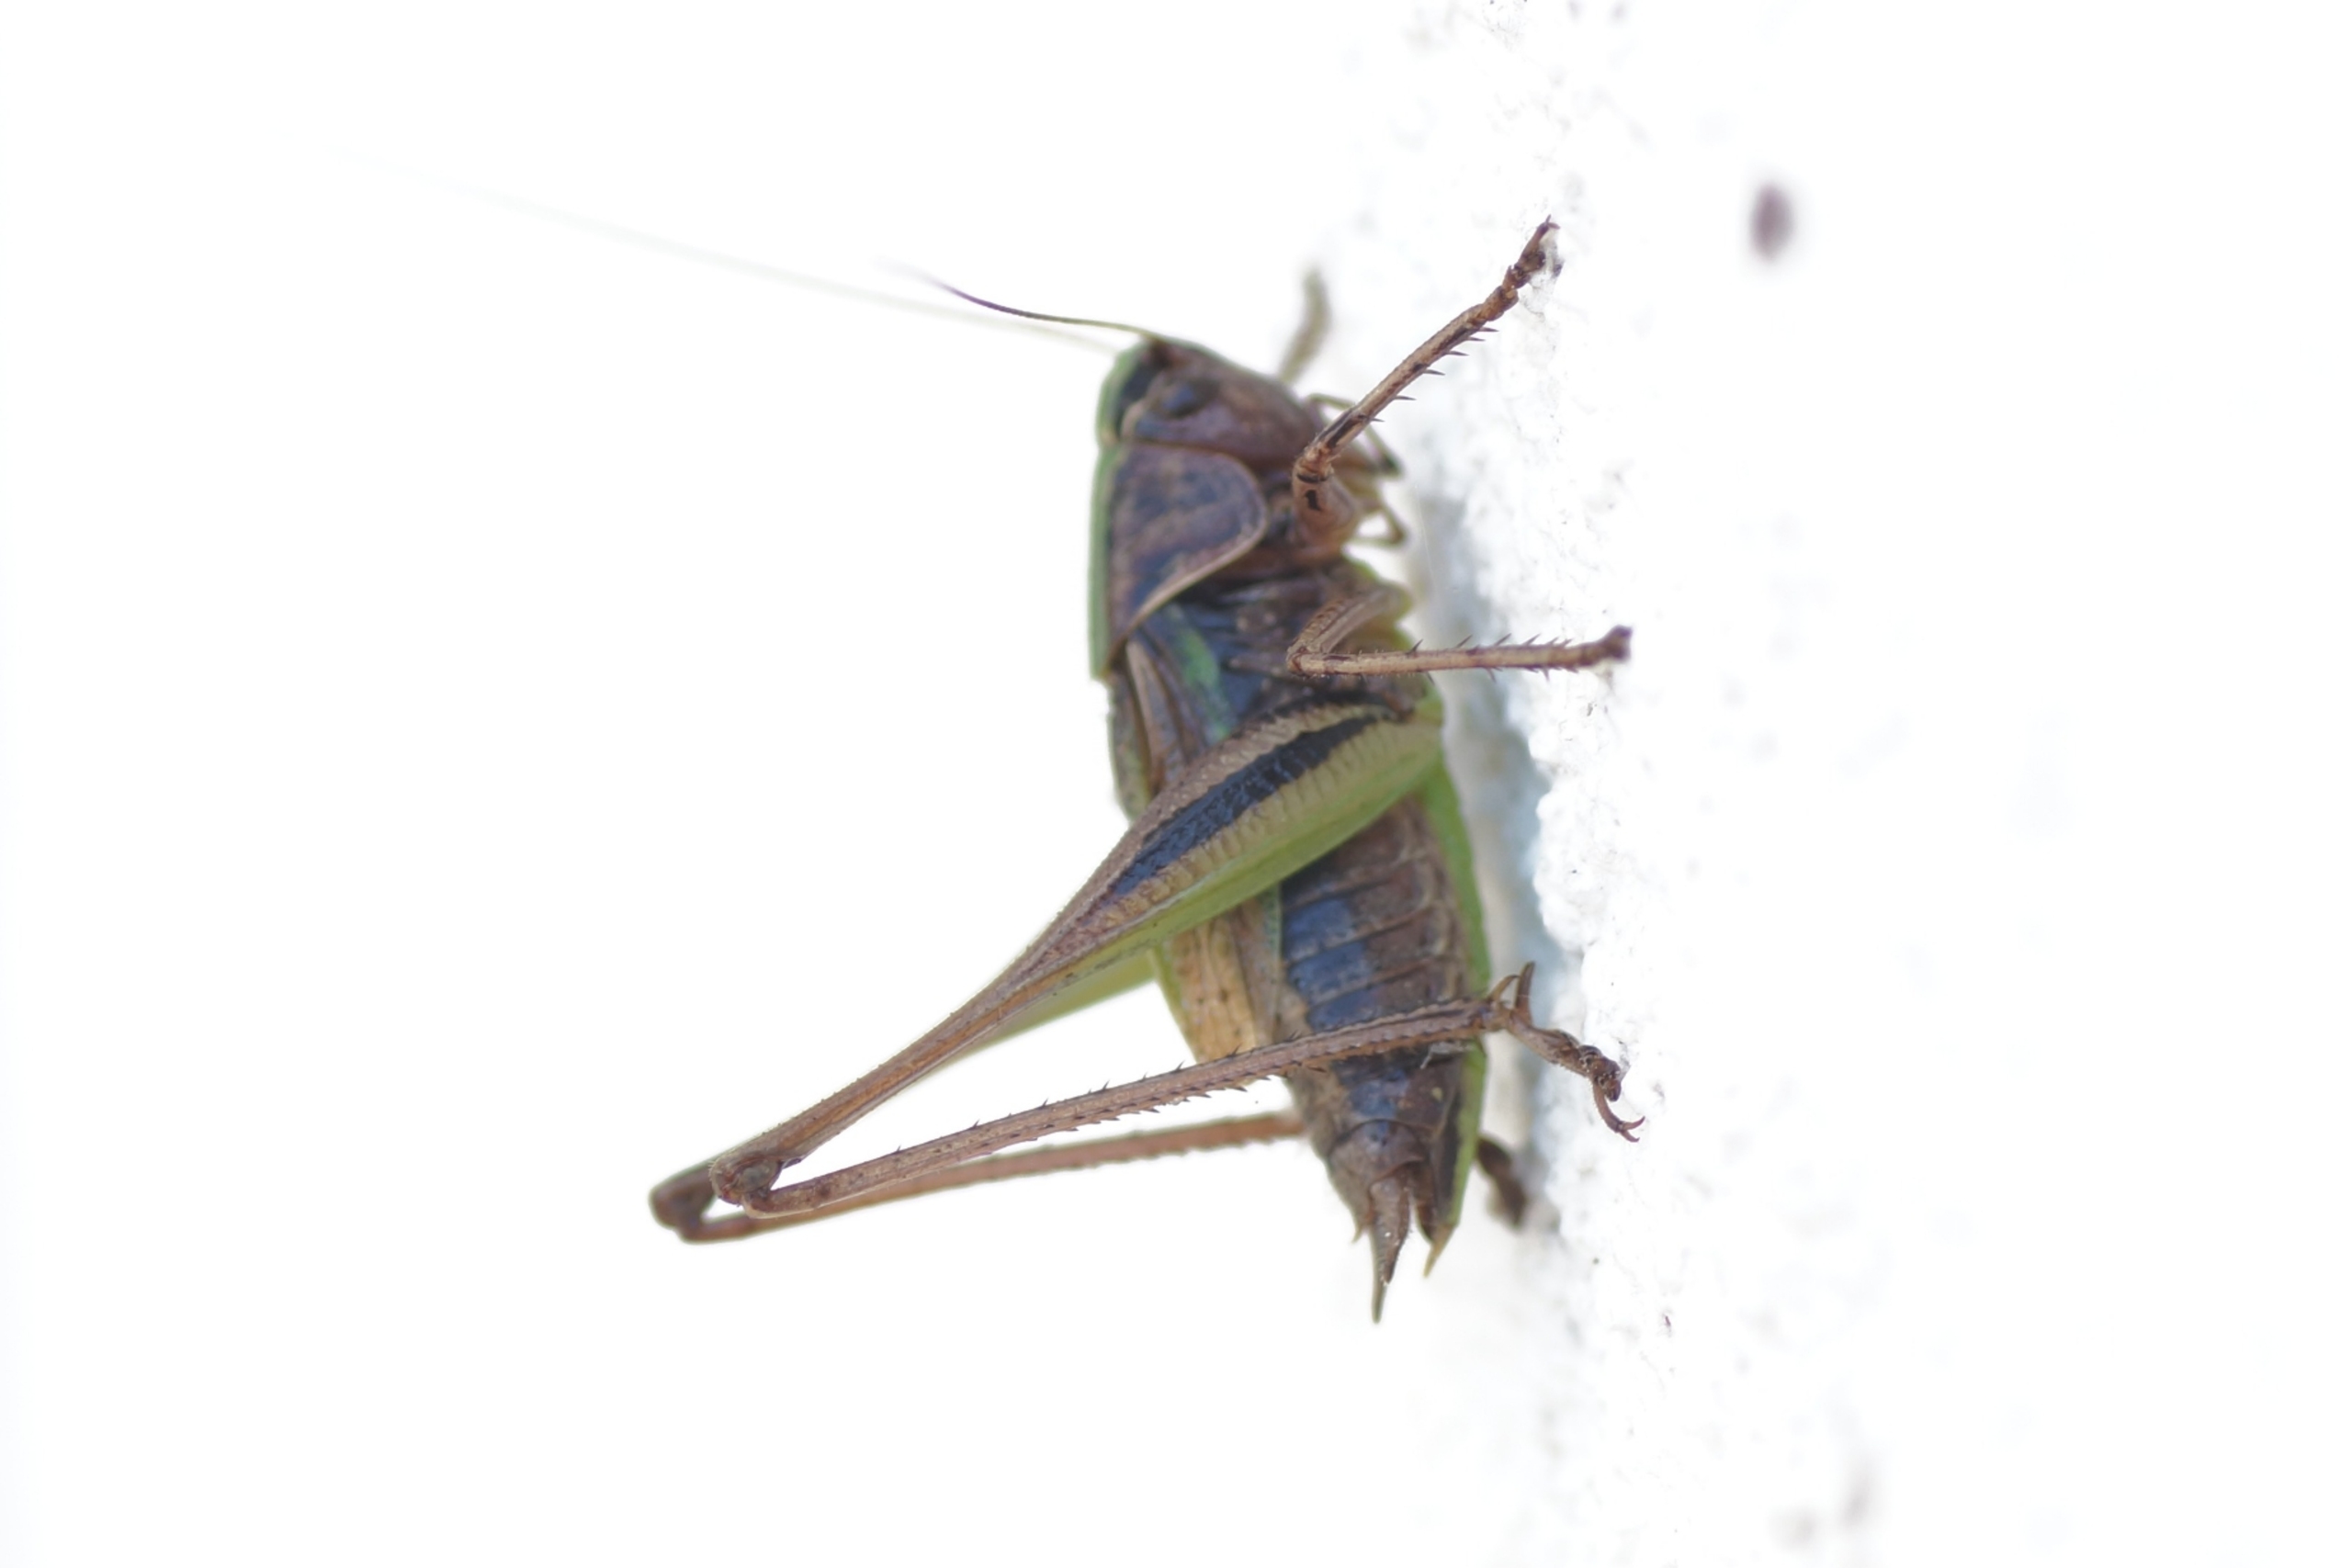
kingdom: Animalia
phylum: Arthropoda
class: Insecta
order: Orthoptera
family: Tettigoniidae
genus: Metrioptera
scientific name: Metrioptera brachyptera
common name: Hedegræshoppe
